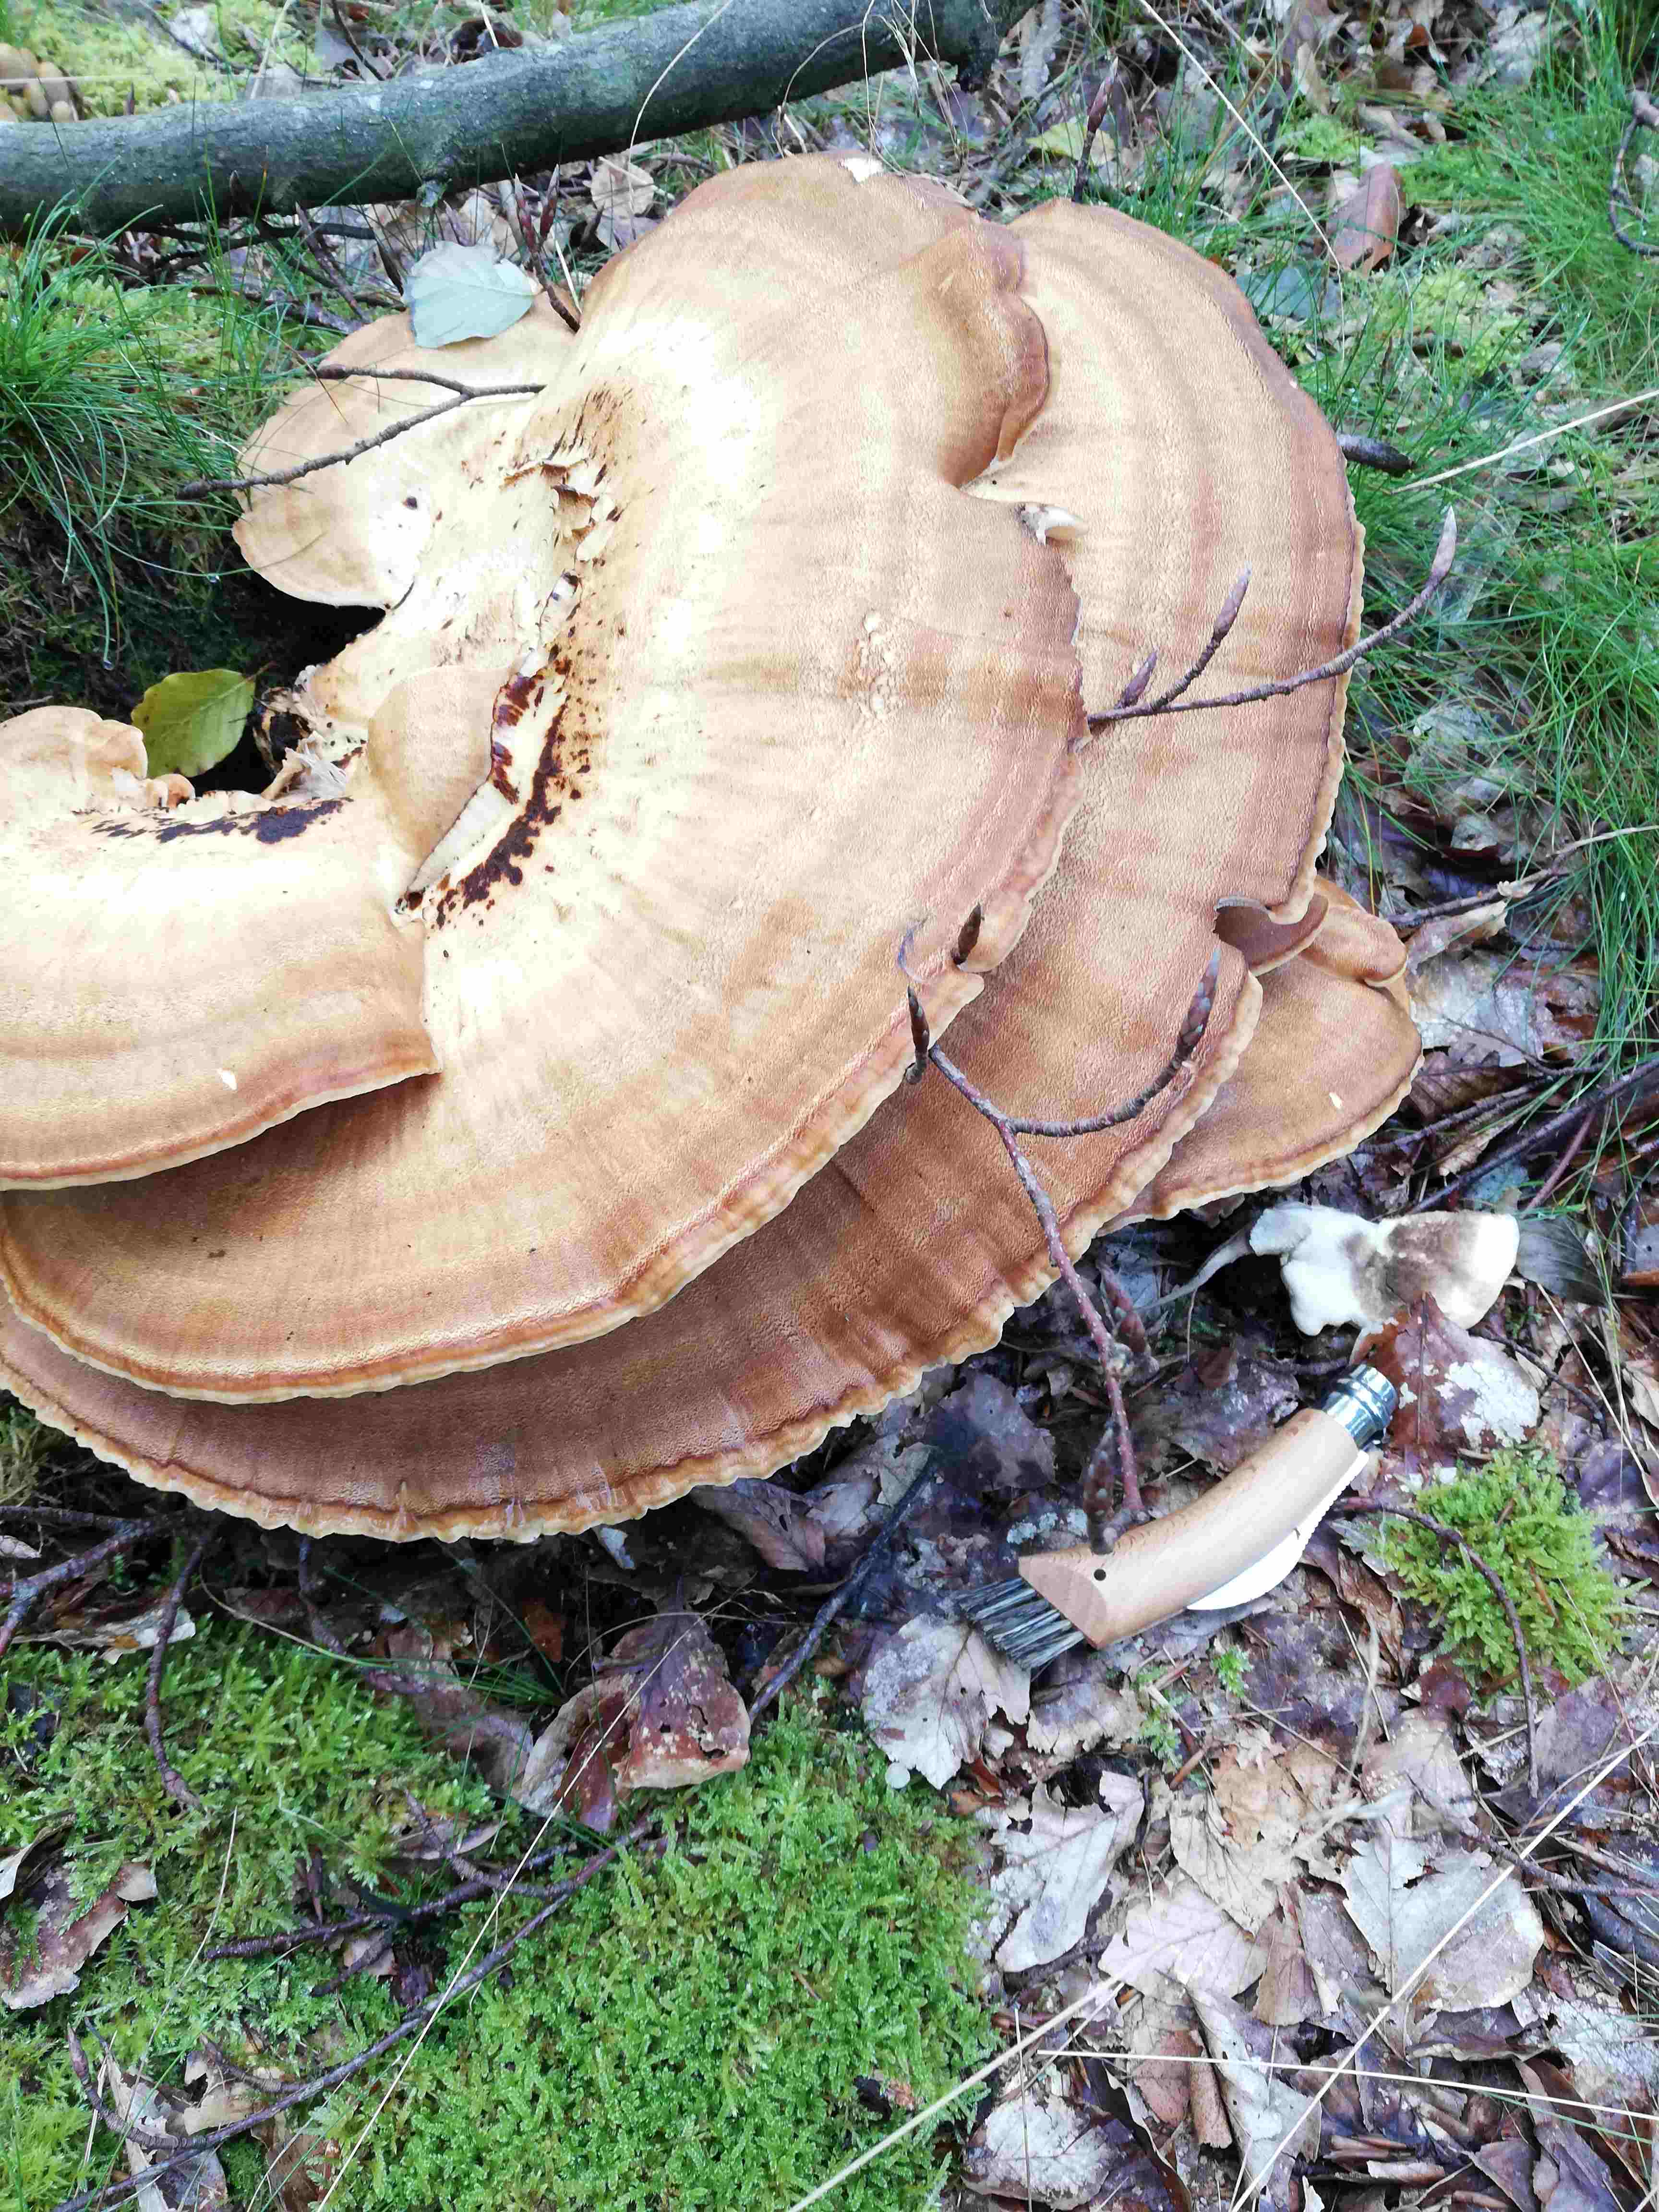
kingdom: Fungi
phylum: Basidiomycota
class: Agaricomycetes
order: Polyporales
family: Meripilaceae
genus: Meripilus
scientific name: Meripilus giganteus
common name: kæmpeporesvamp
